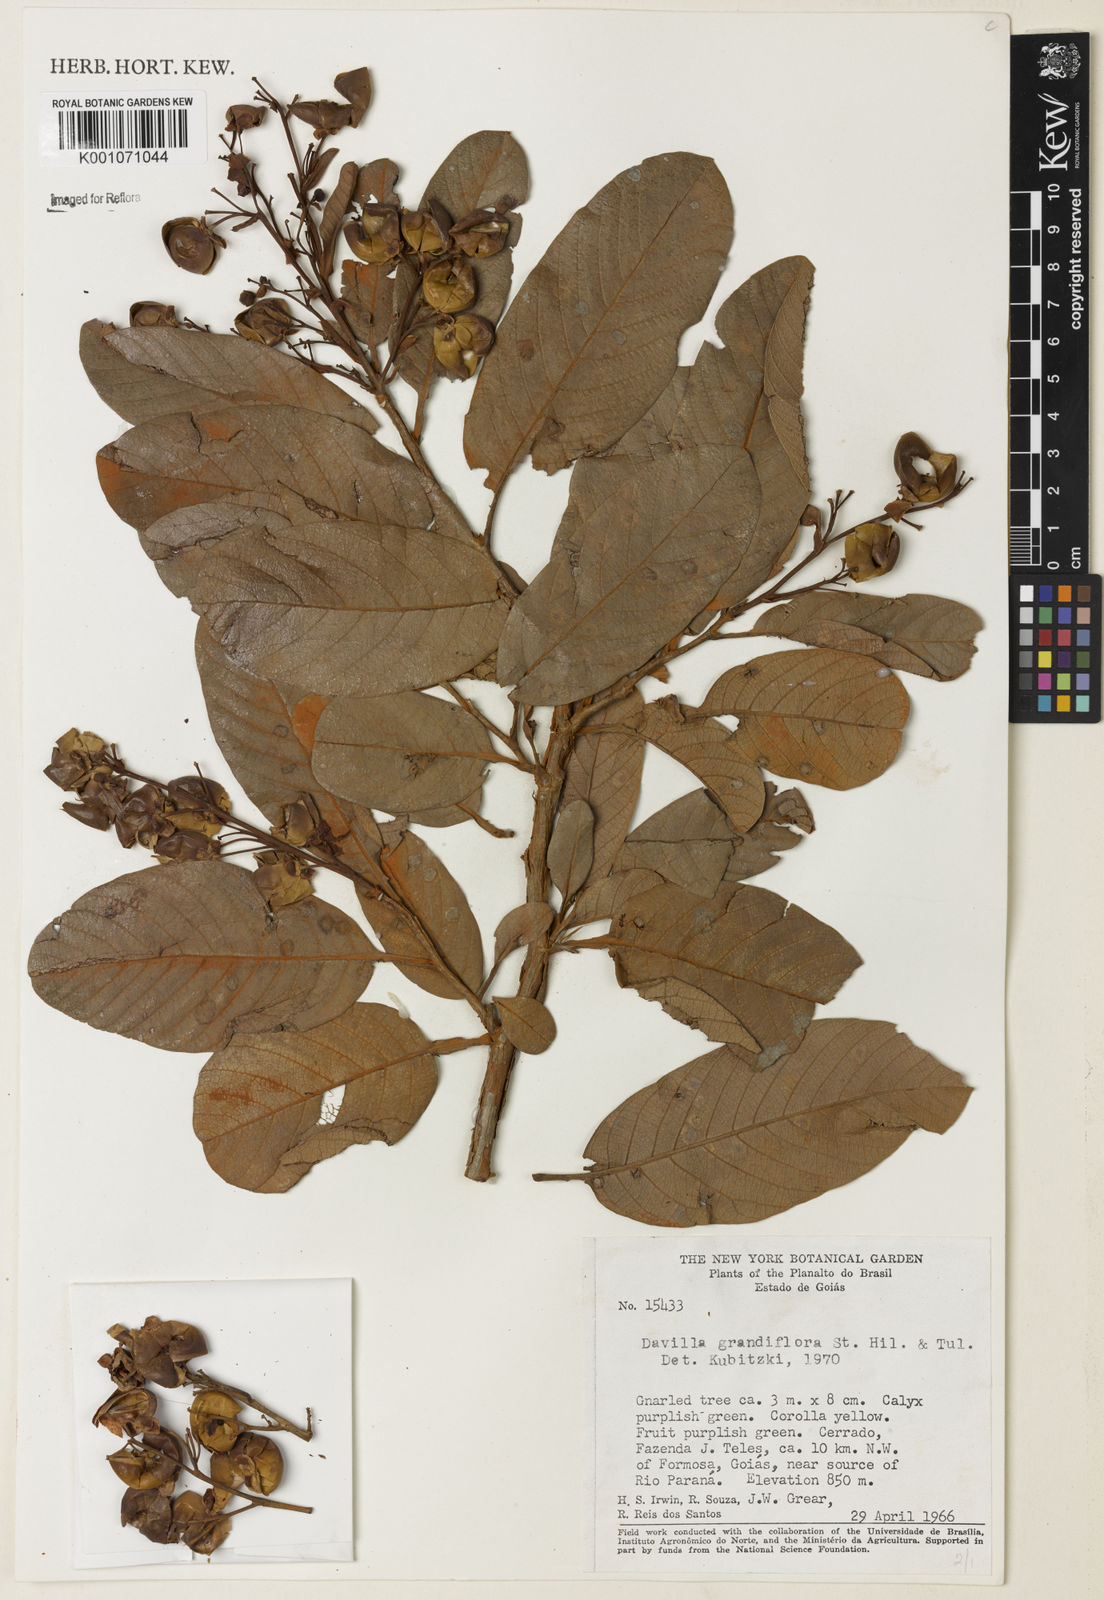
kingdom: Plantae
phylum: Tracheophyta
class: Magnoliopsida
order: Dilleniales
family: Dilleniaceae
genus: Davilla
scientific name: Davilla grandiflora
